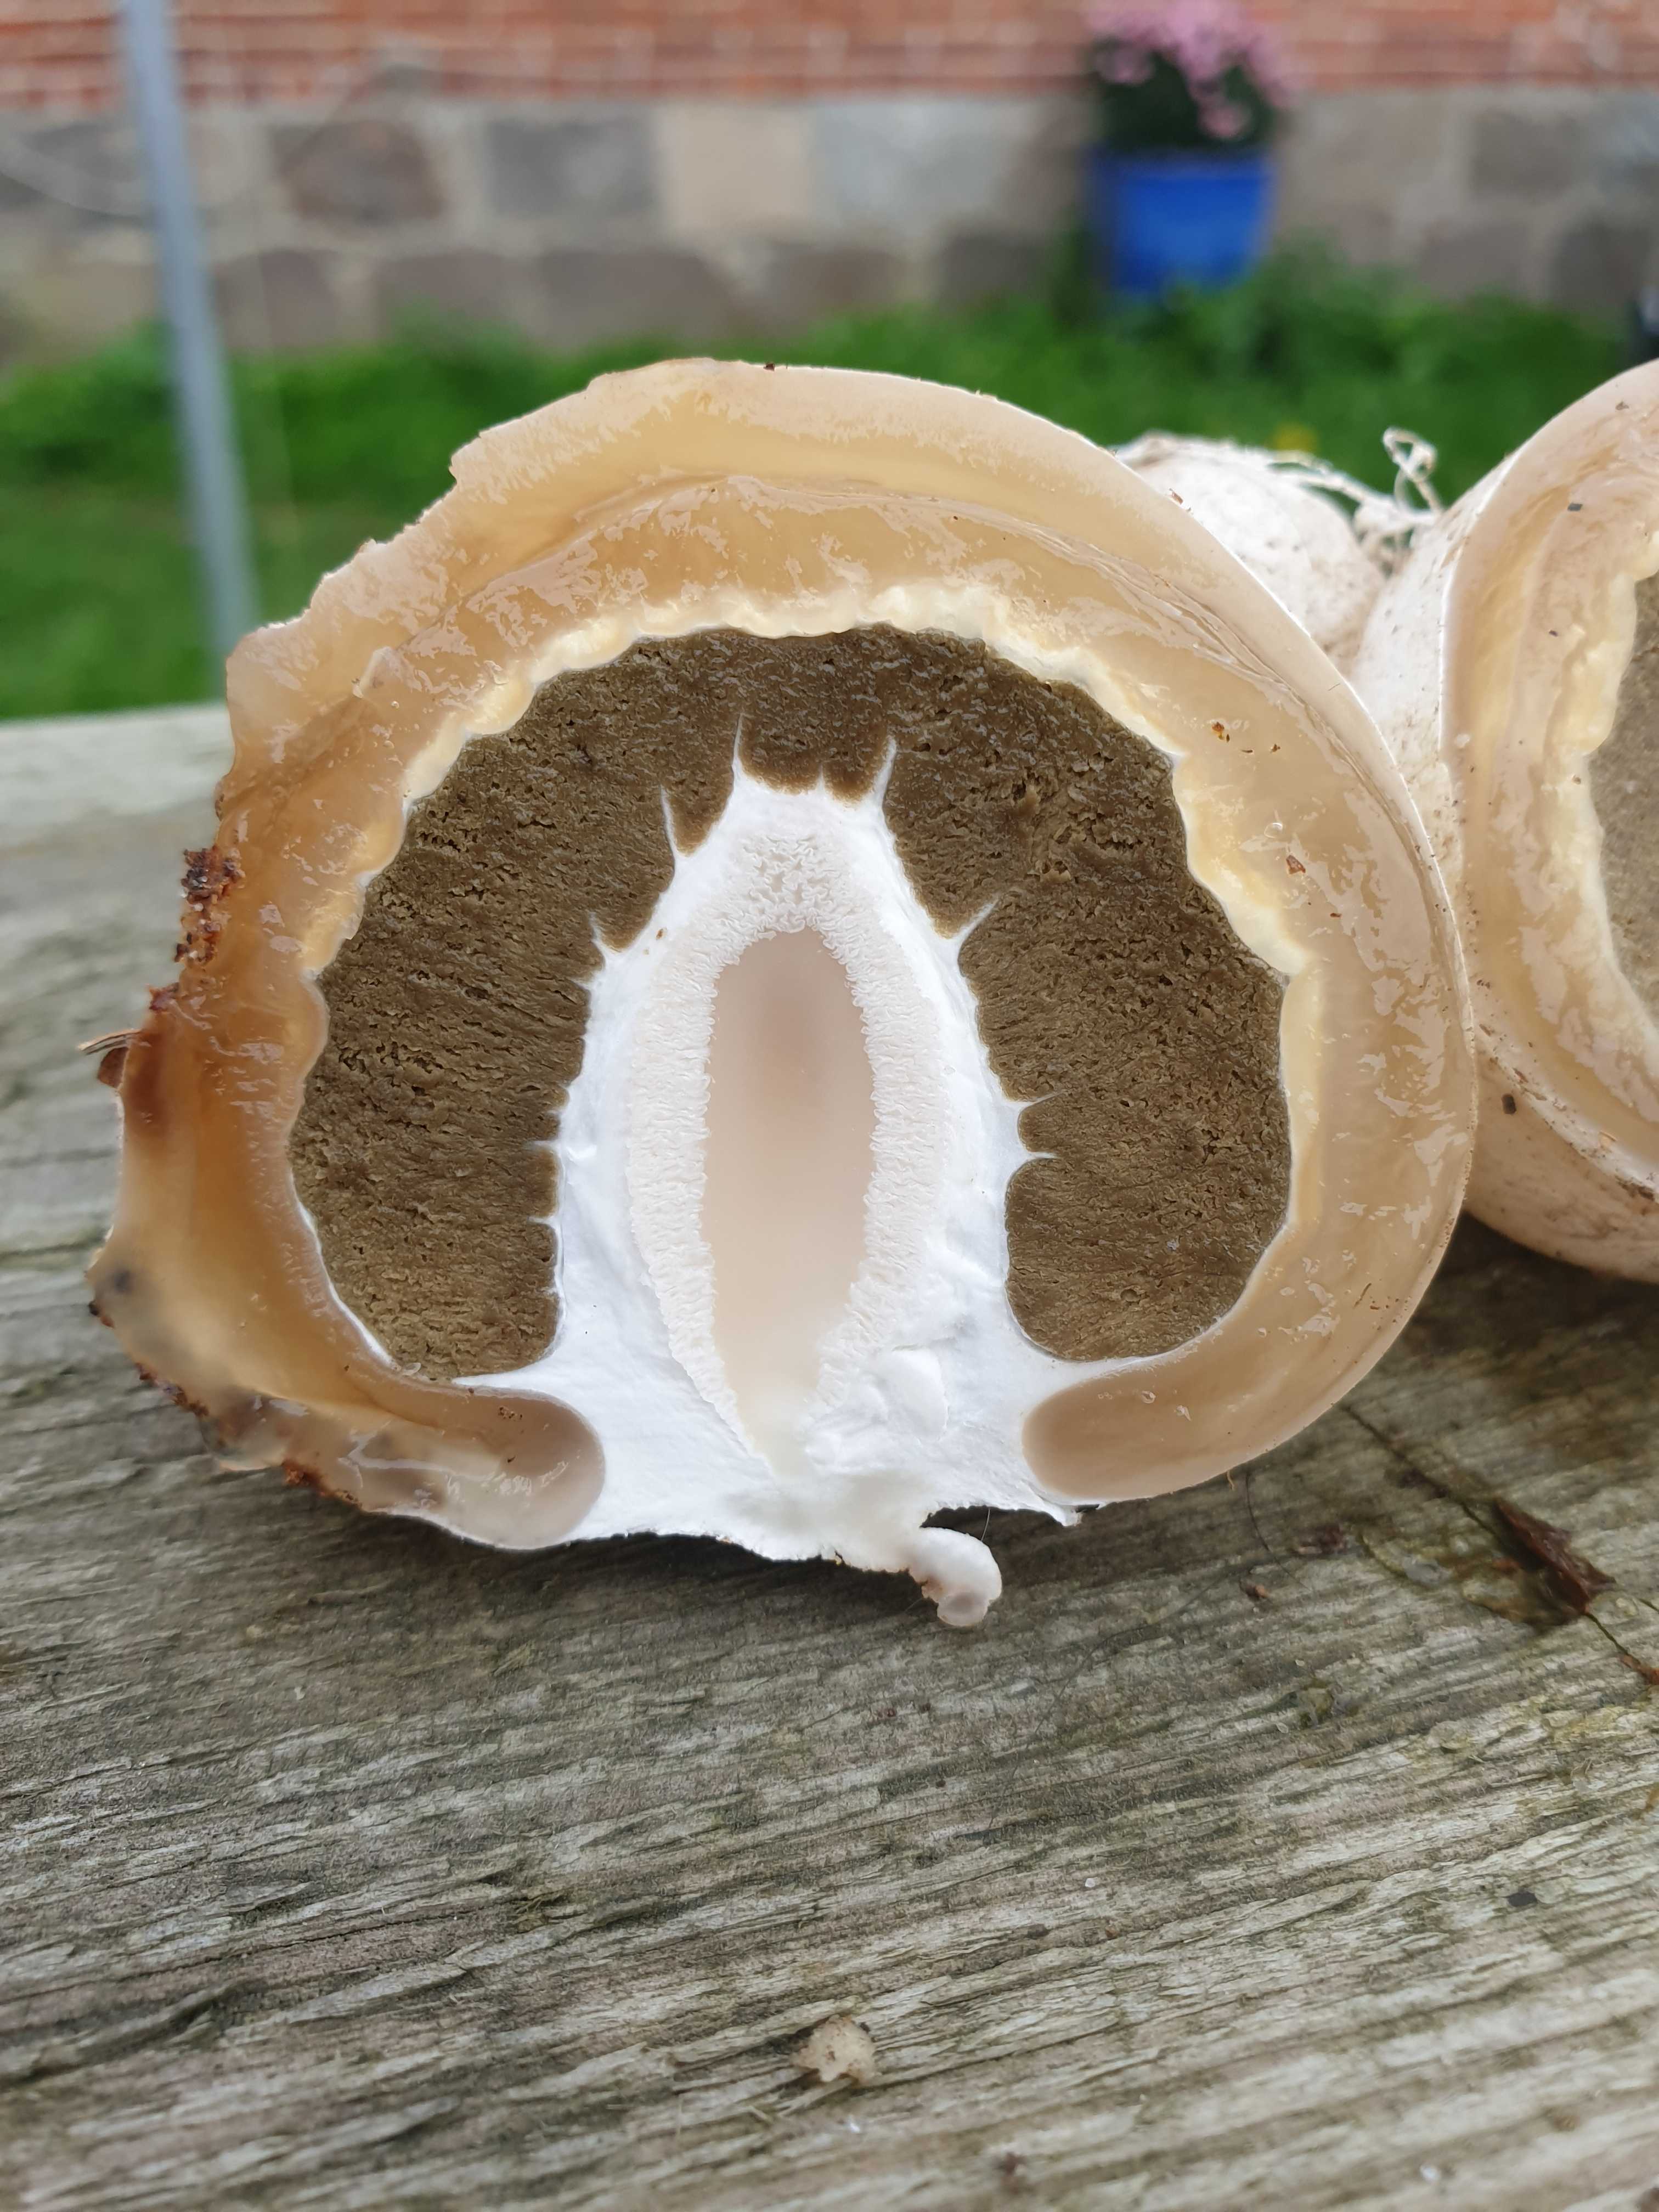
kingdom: Fungi
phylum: Basidiomycota
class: Agaricomycetes
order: Phallales
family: Phallaceae
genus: Phallus
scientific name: Phallus impudicus
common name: almindelig stinksvamp
